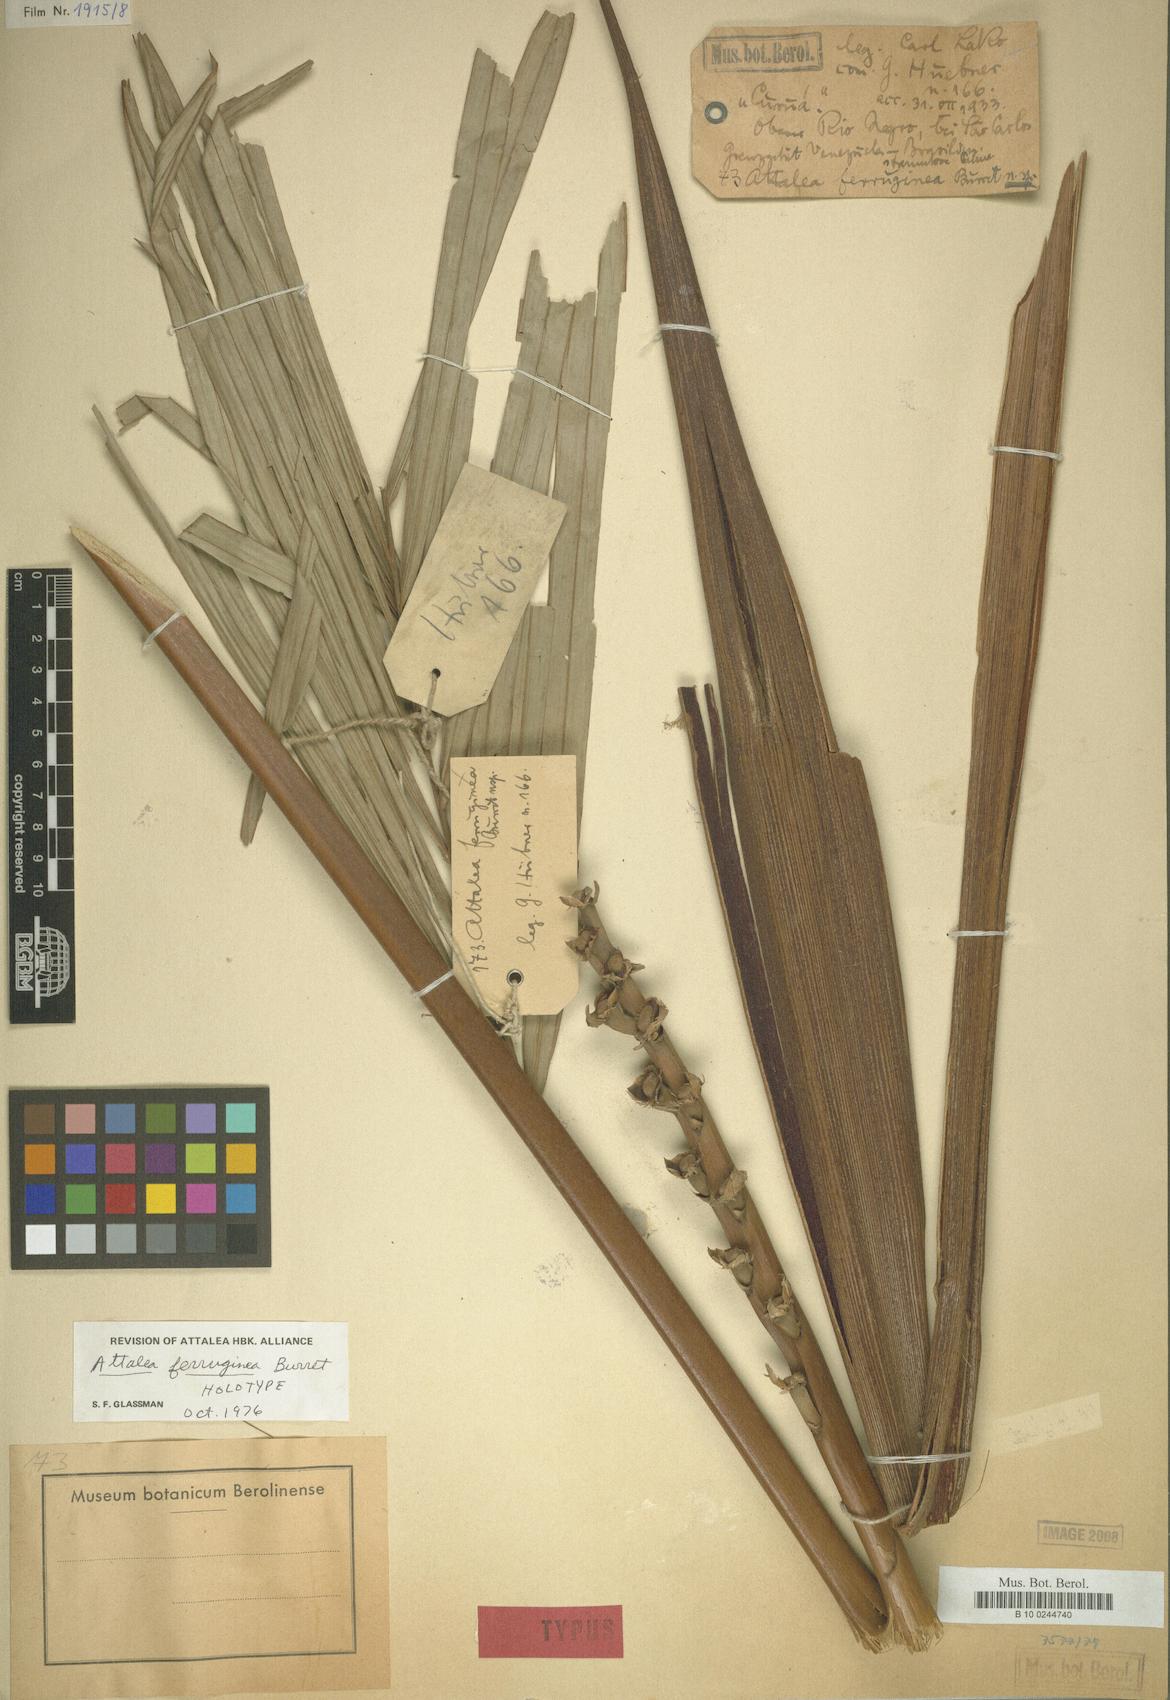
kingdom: Plantae
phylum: Tracheophyta
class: Liliopsida
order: Arecales
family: Arecaceae
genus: Attalea
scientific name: Attalea racemosa
